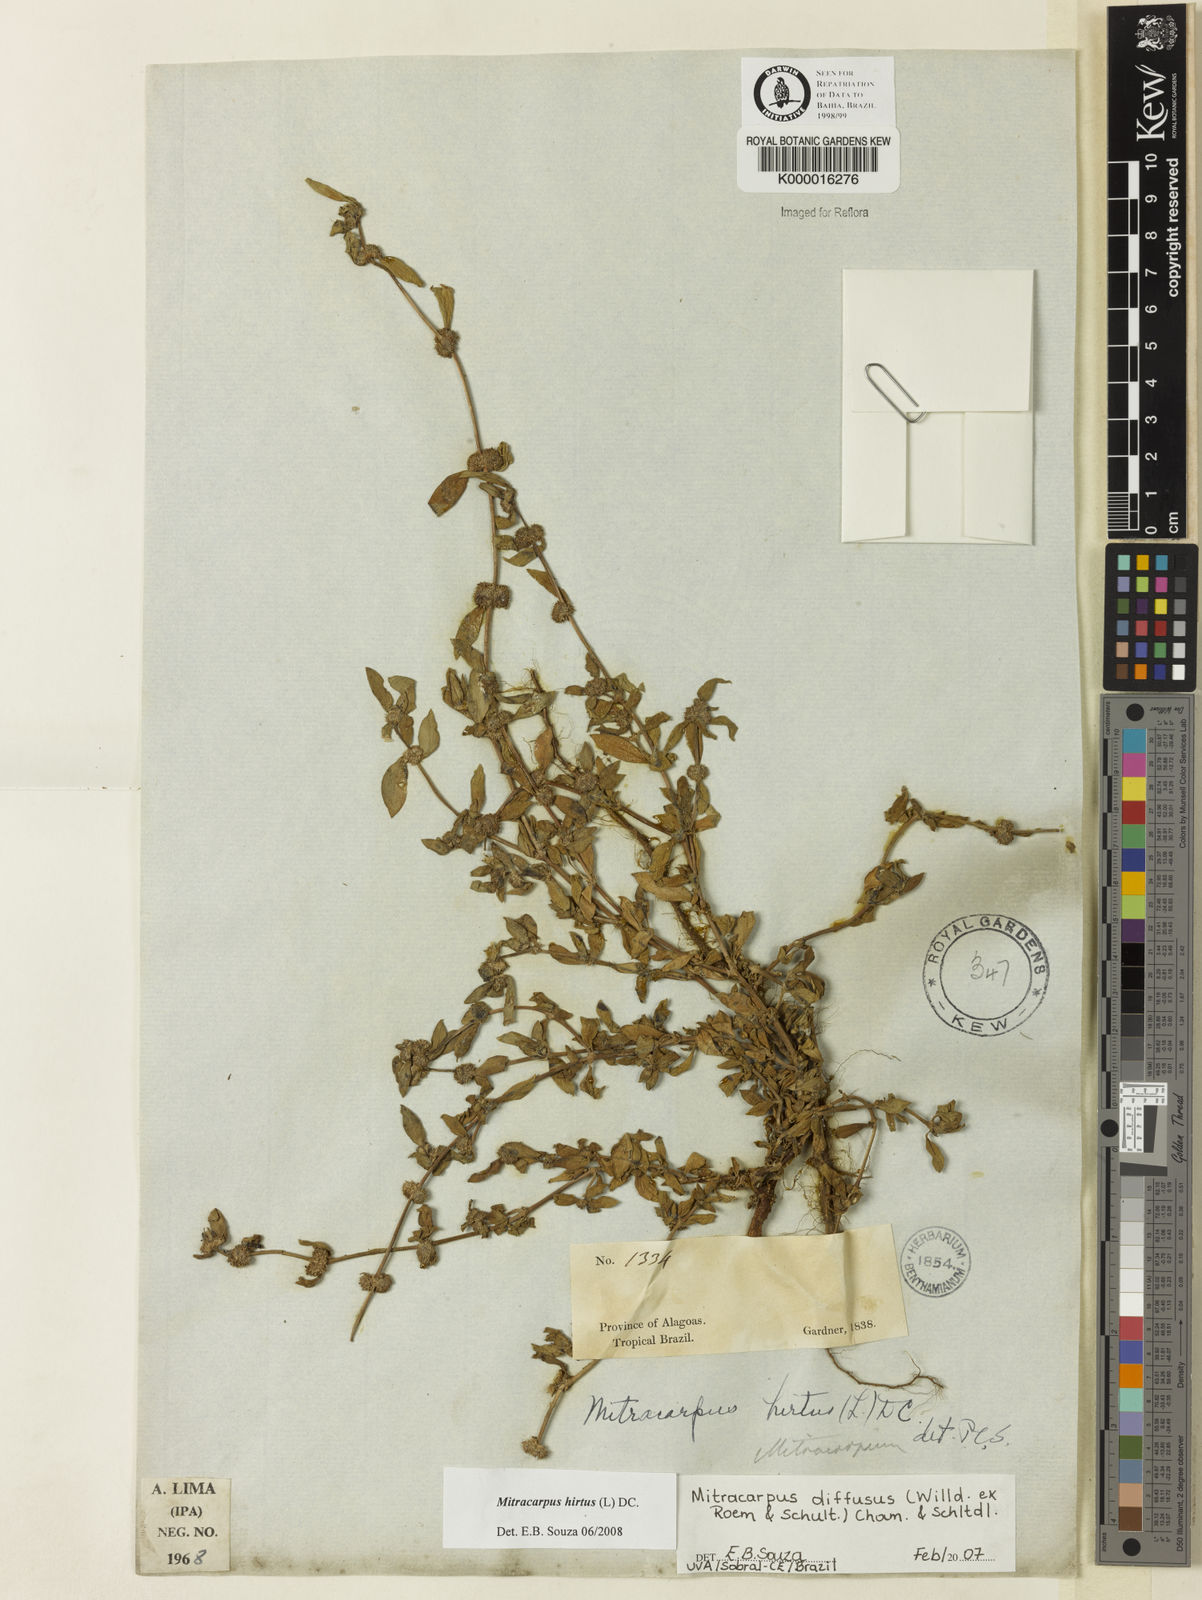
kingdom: Plantae
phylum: Tracheophyta
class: Magnoliopsida
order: Gentianales
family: Rubiaceae
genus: Mitracarpus
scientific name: Mitracarpus hirtus
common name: Tropical girdlepod
